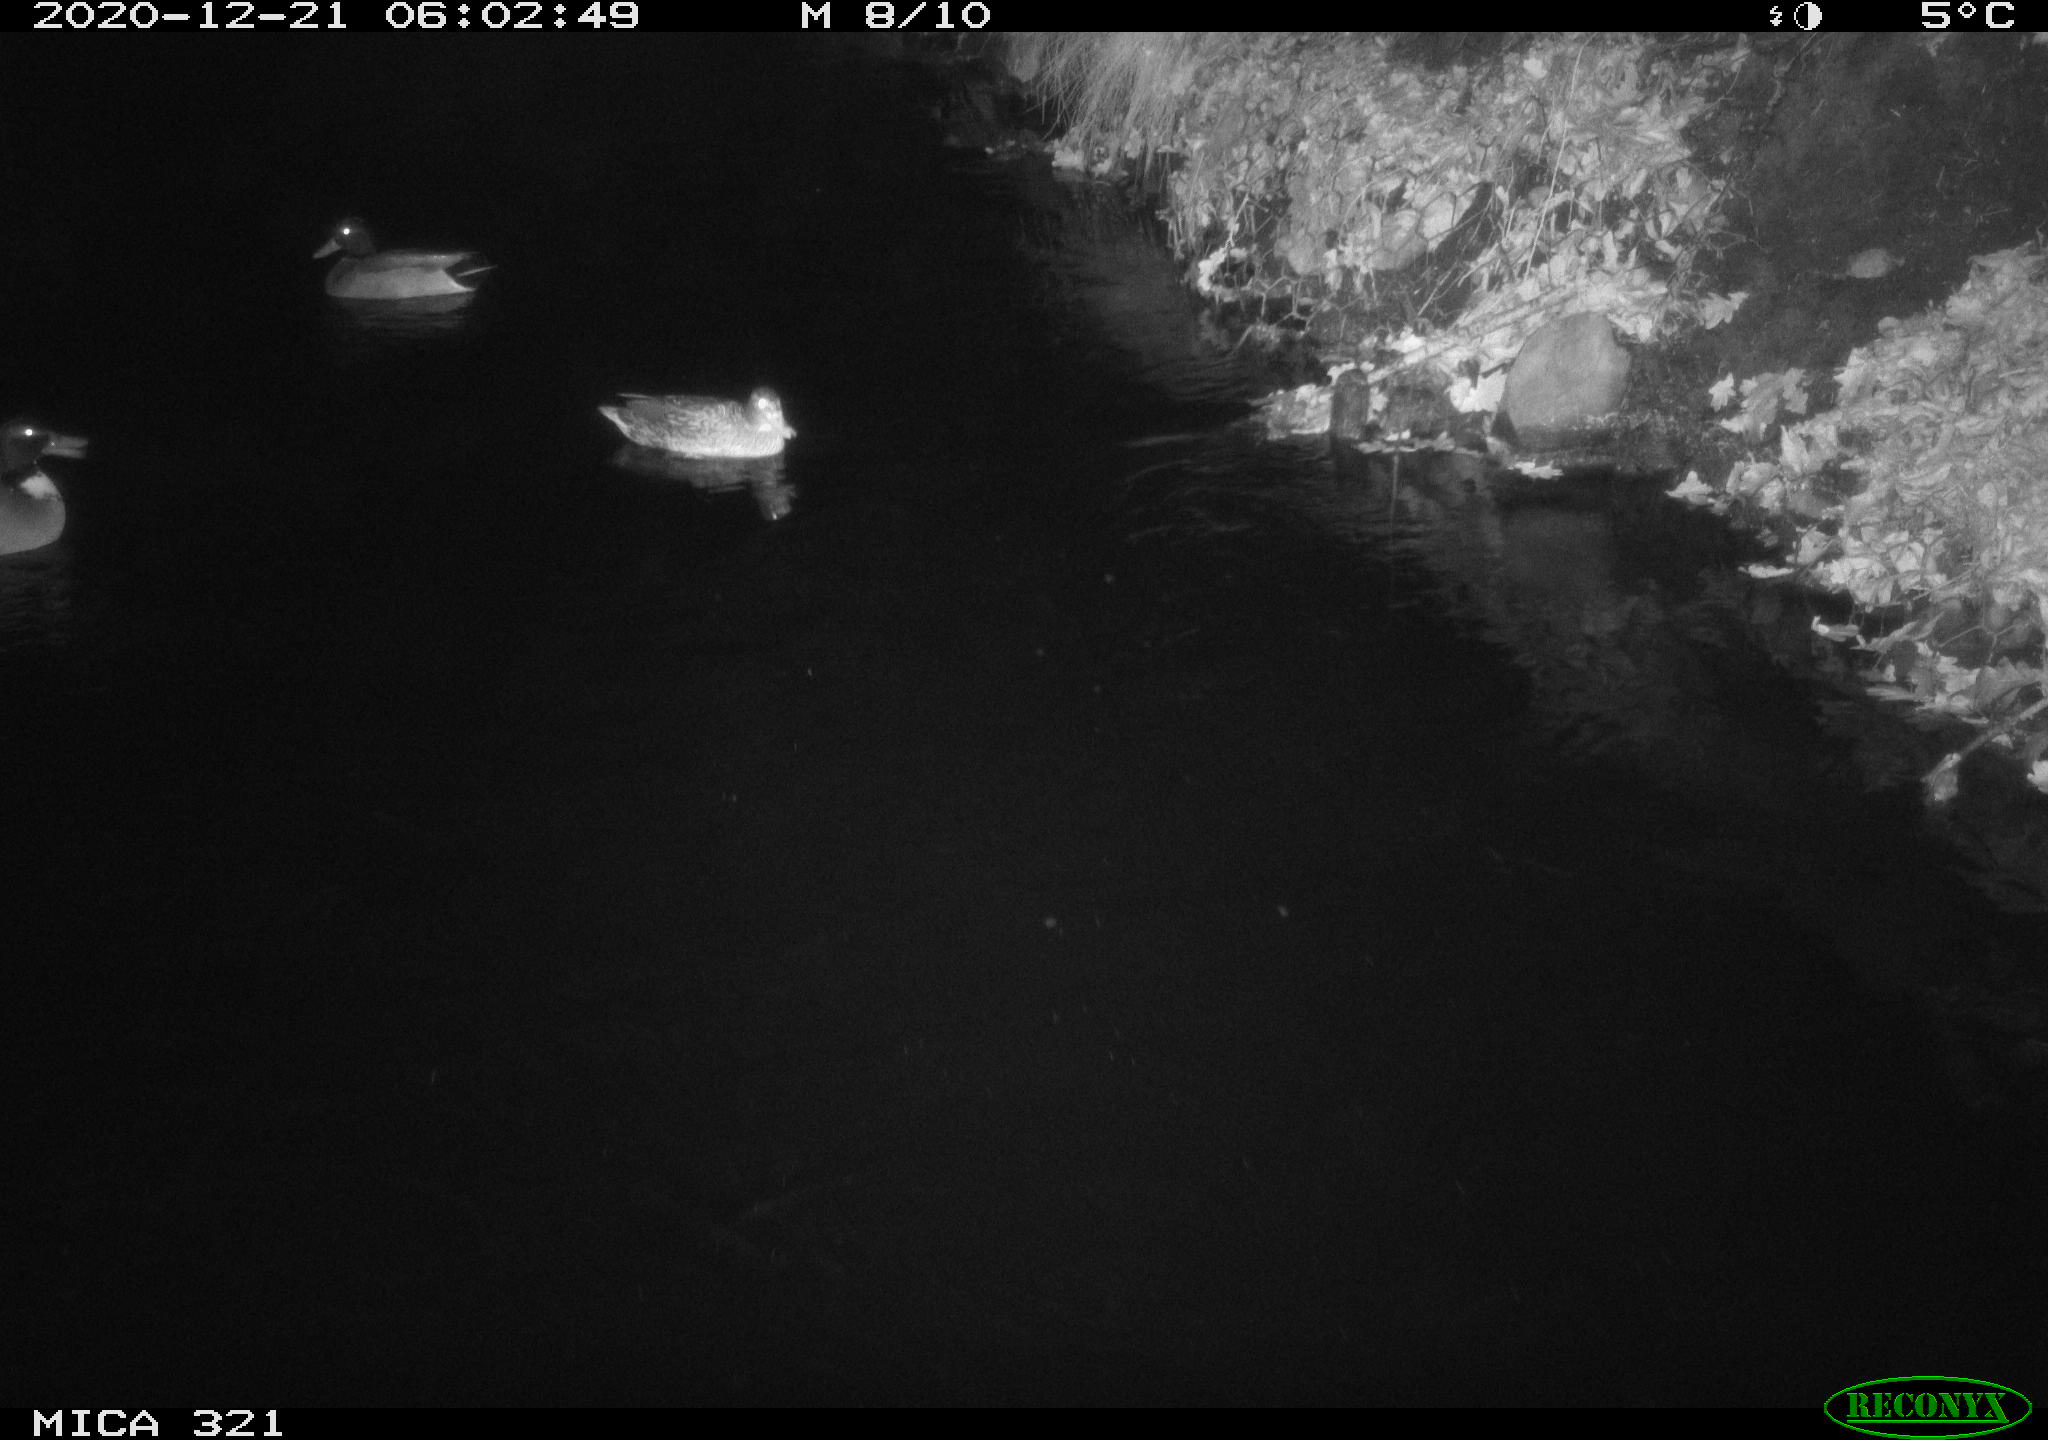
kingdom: Animalia
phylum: Chordata
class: Aves
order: Anseriformes
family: Anatidae
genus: Anas
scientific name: Anas platyrhynchos
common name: Mallard
